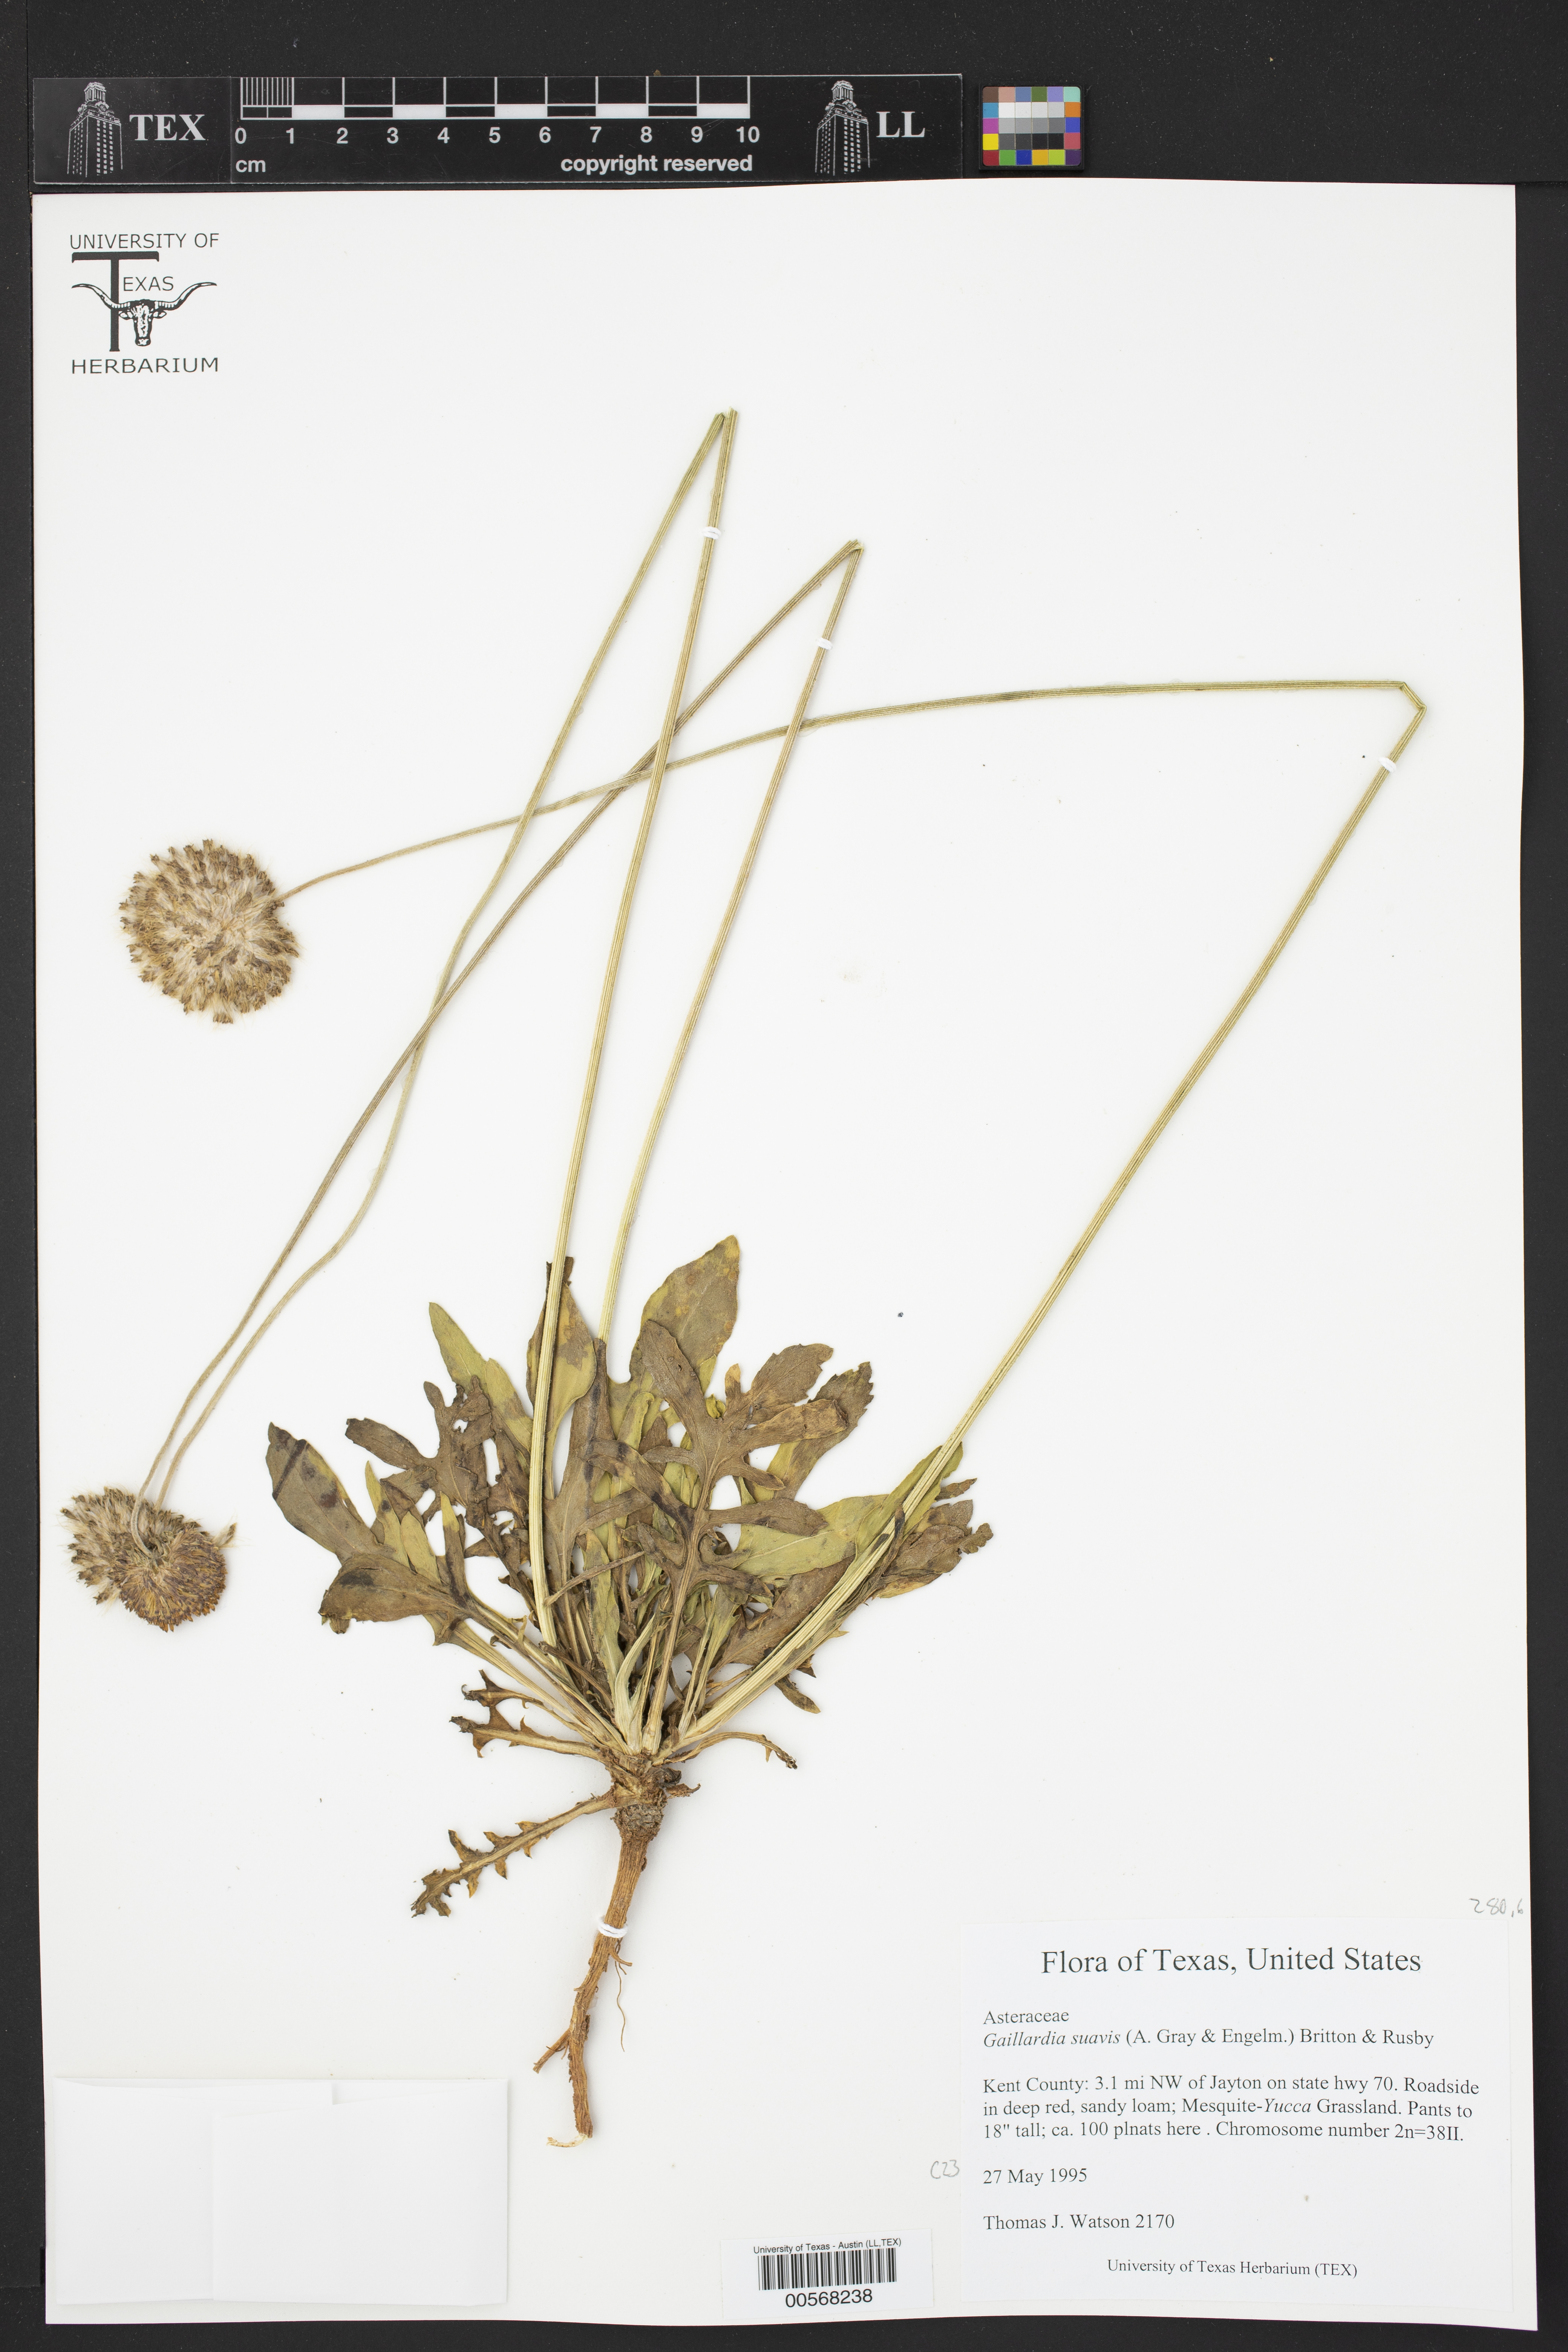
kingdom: Plantae
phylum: Tracheophyta
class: Magnoliopsida
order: Asterales
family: Asteraceae
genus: Gaillardia
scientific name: Gaillardia suavis
